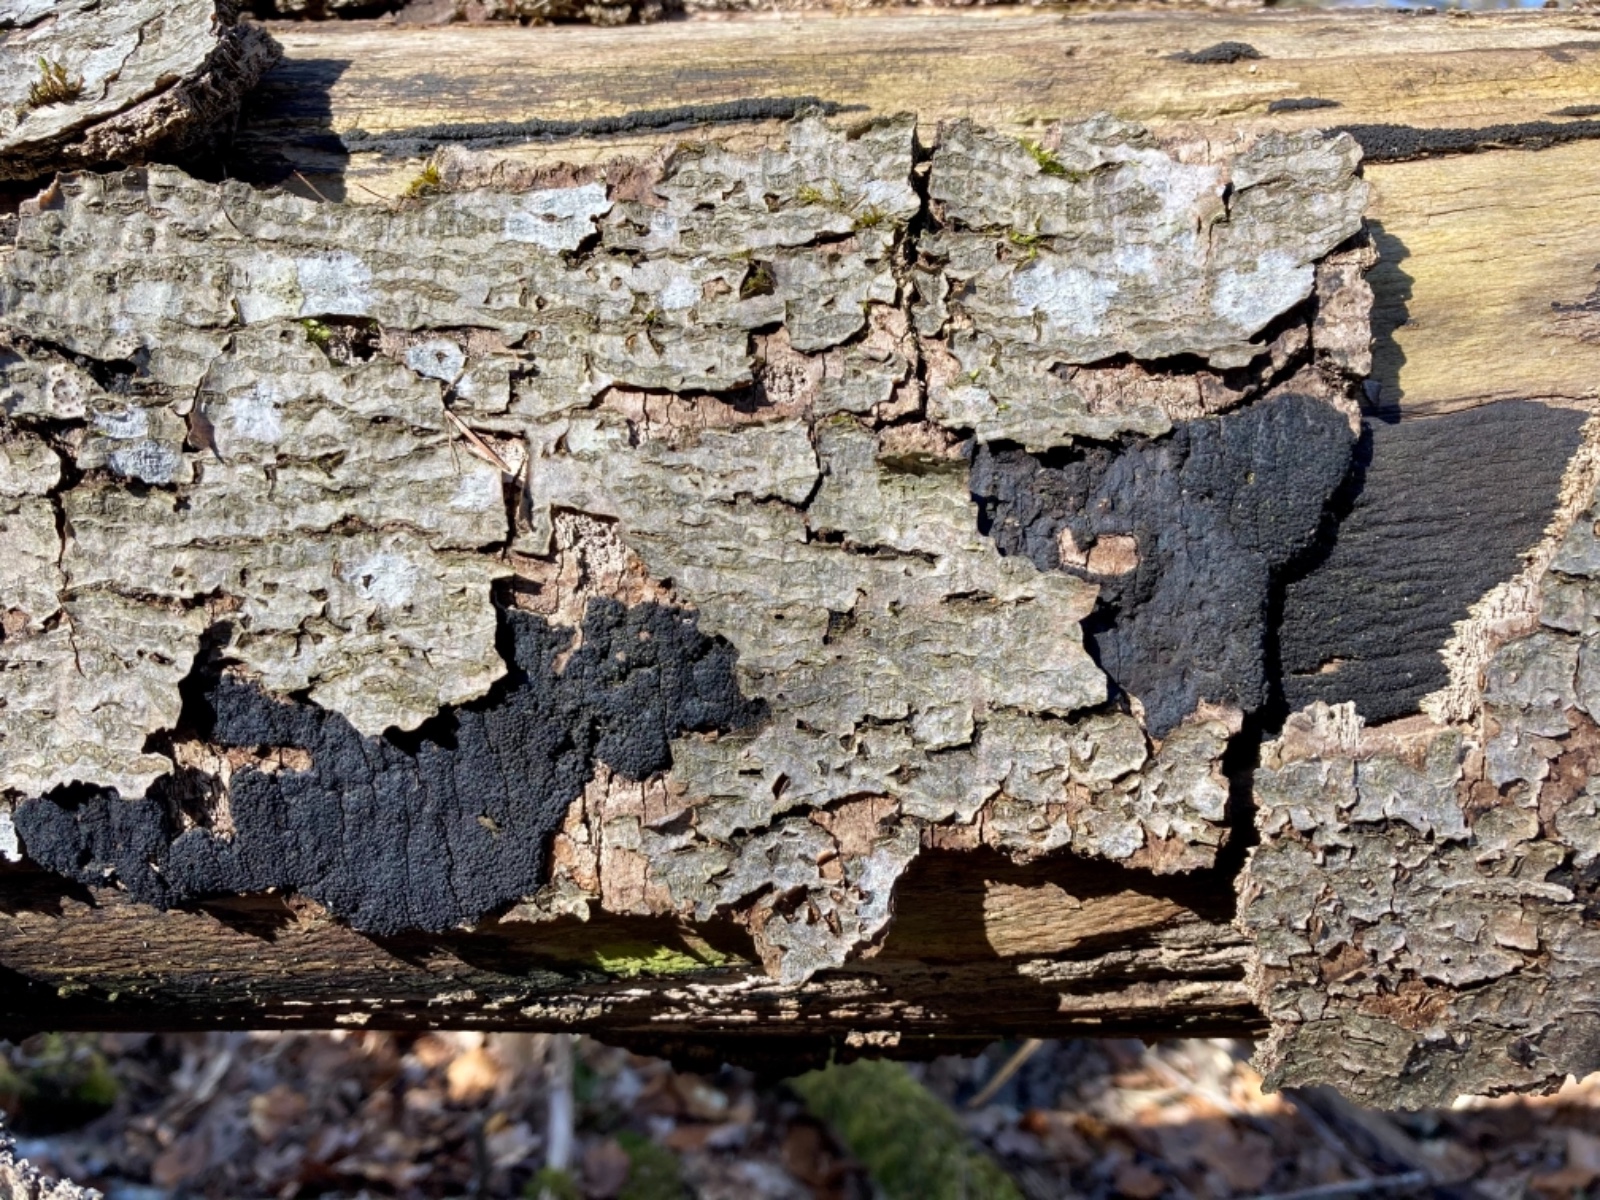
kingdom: Fungi
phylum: Ascomycota
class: Sordariomycetes
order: Xylariales
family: Diatrypaceae
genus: Eutypa
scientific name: Eutypa spinosa
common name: grov kulskorpe
